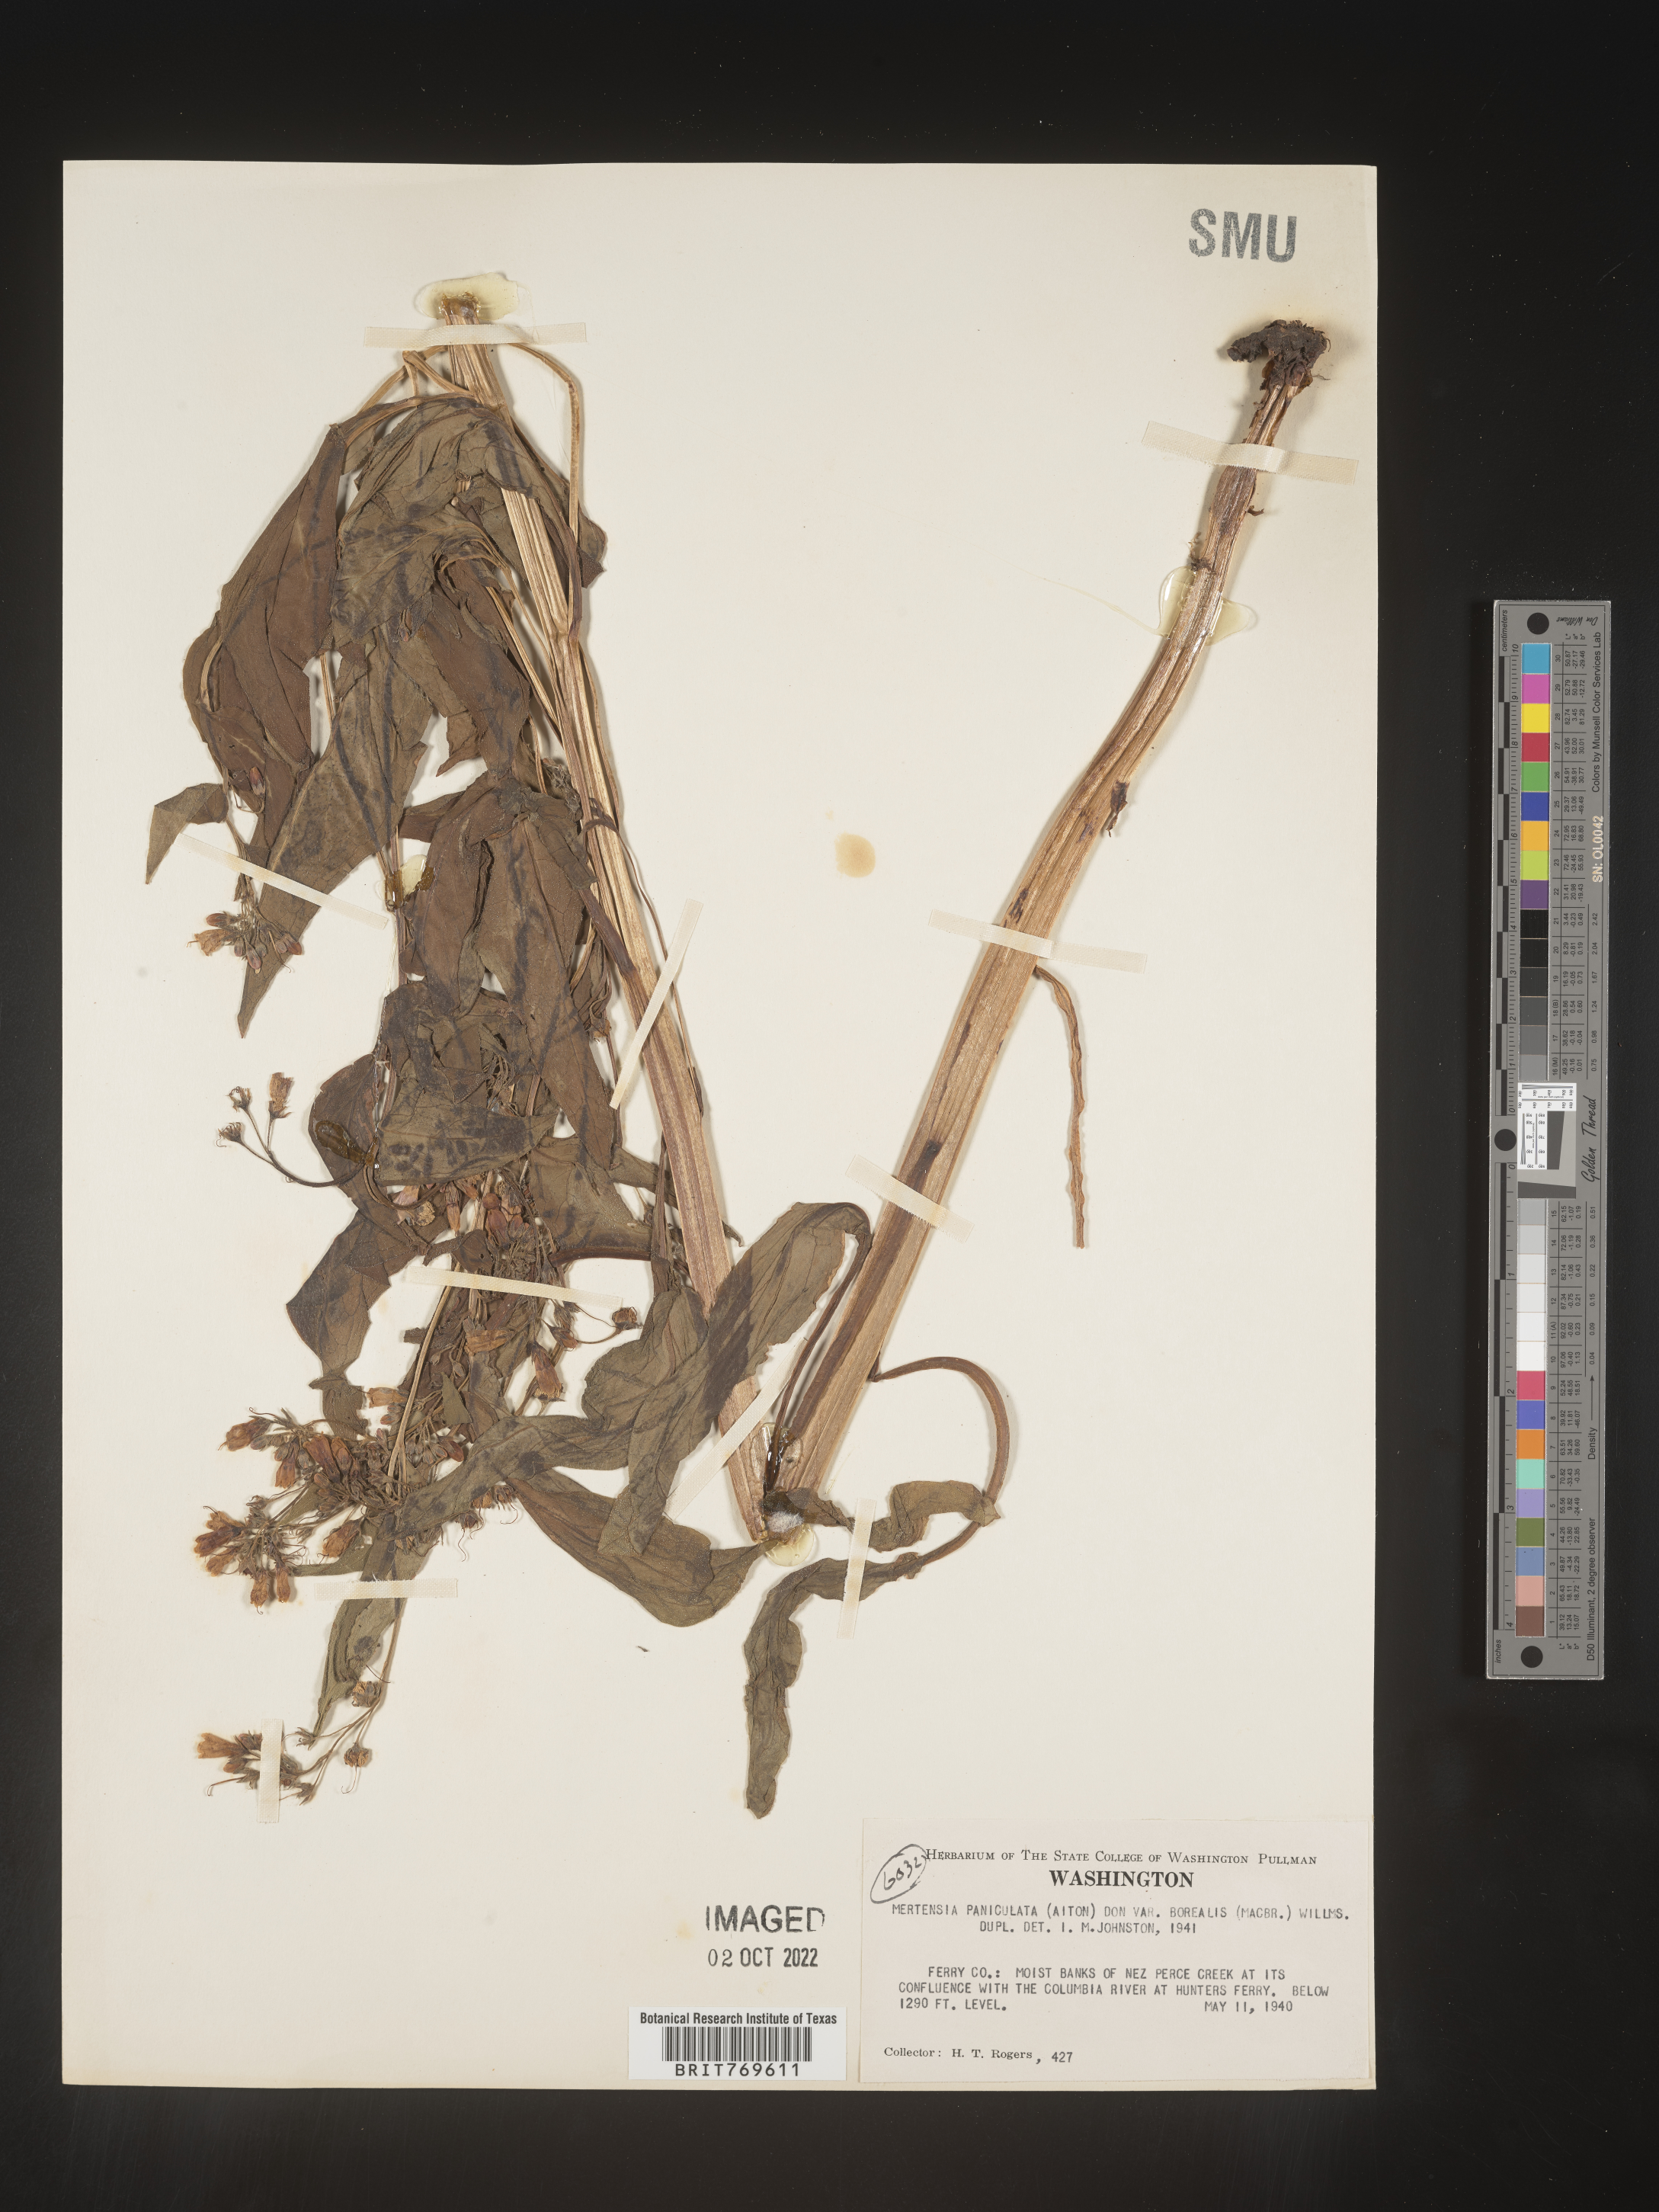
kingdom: Plantae
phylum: Tracheophyta
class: Magnoliopsida
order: Boraginales
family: Boraginaceae
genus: Mertensia
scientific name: Mertensia
